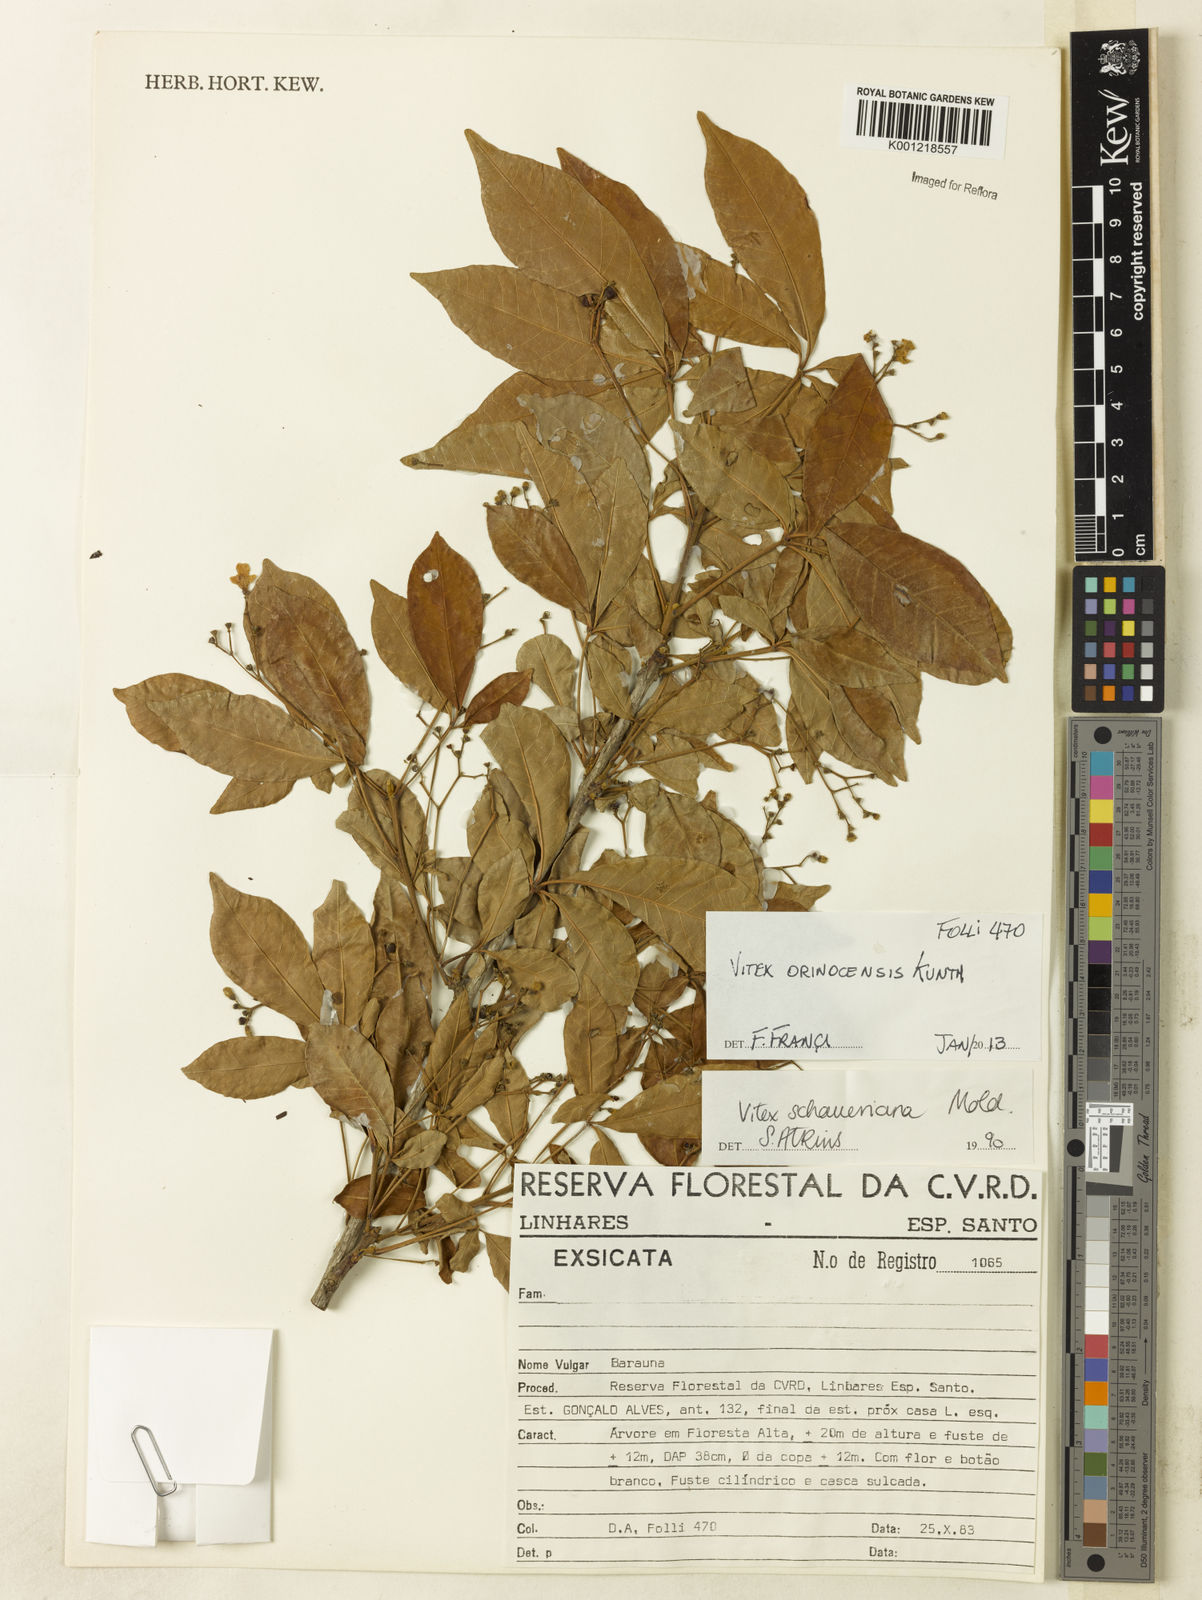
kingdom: Plantae
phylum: Tracheophyta
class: Magnoliopsida
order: Lamiales
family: Lamiaceae
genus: Vitex
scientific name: Vitex orinocensis
